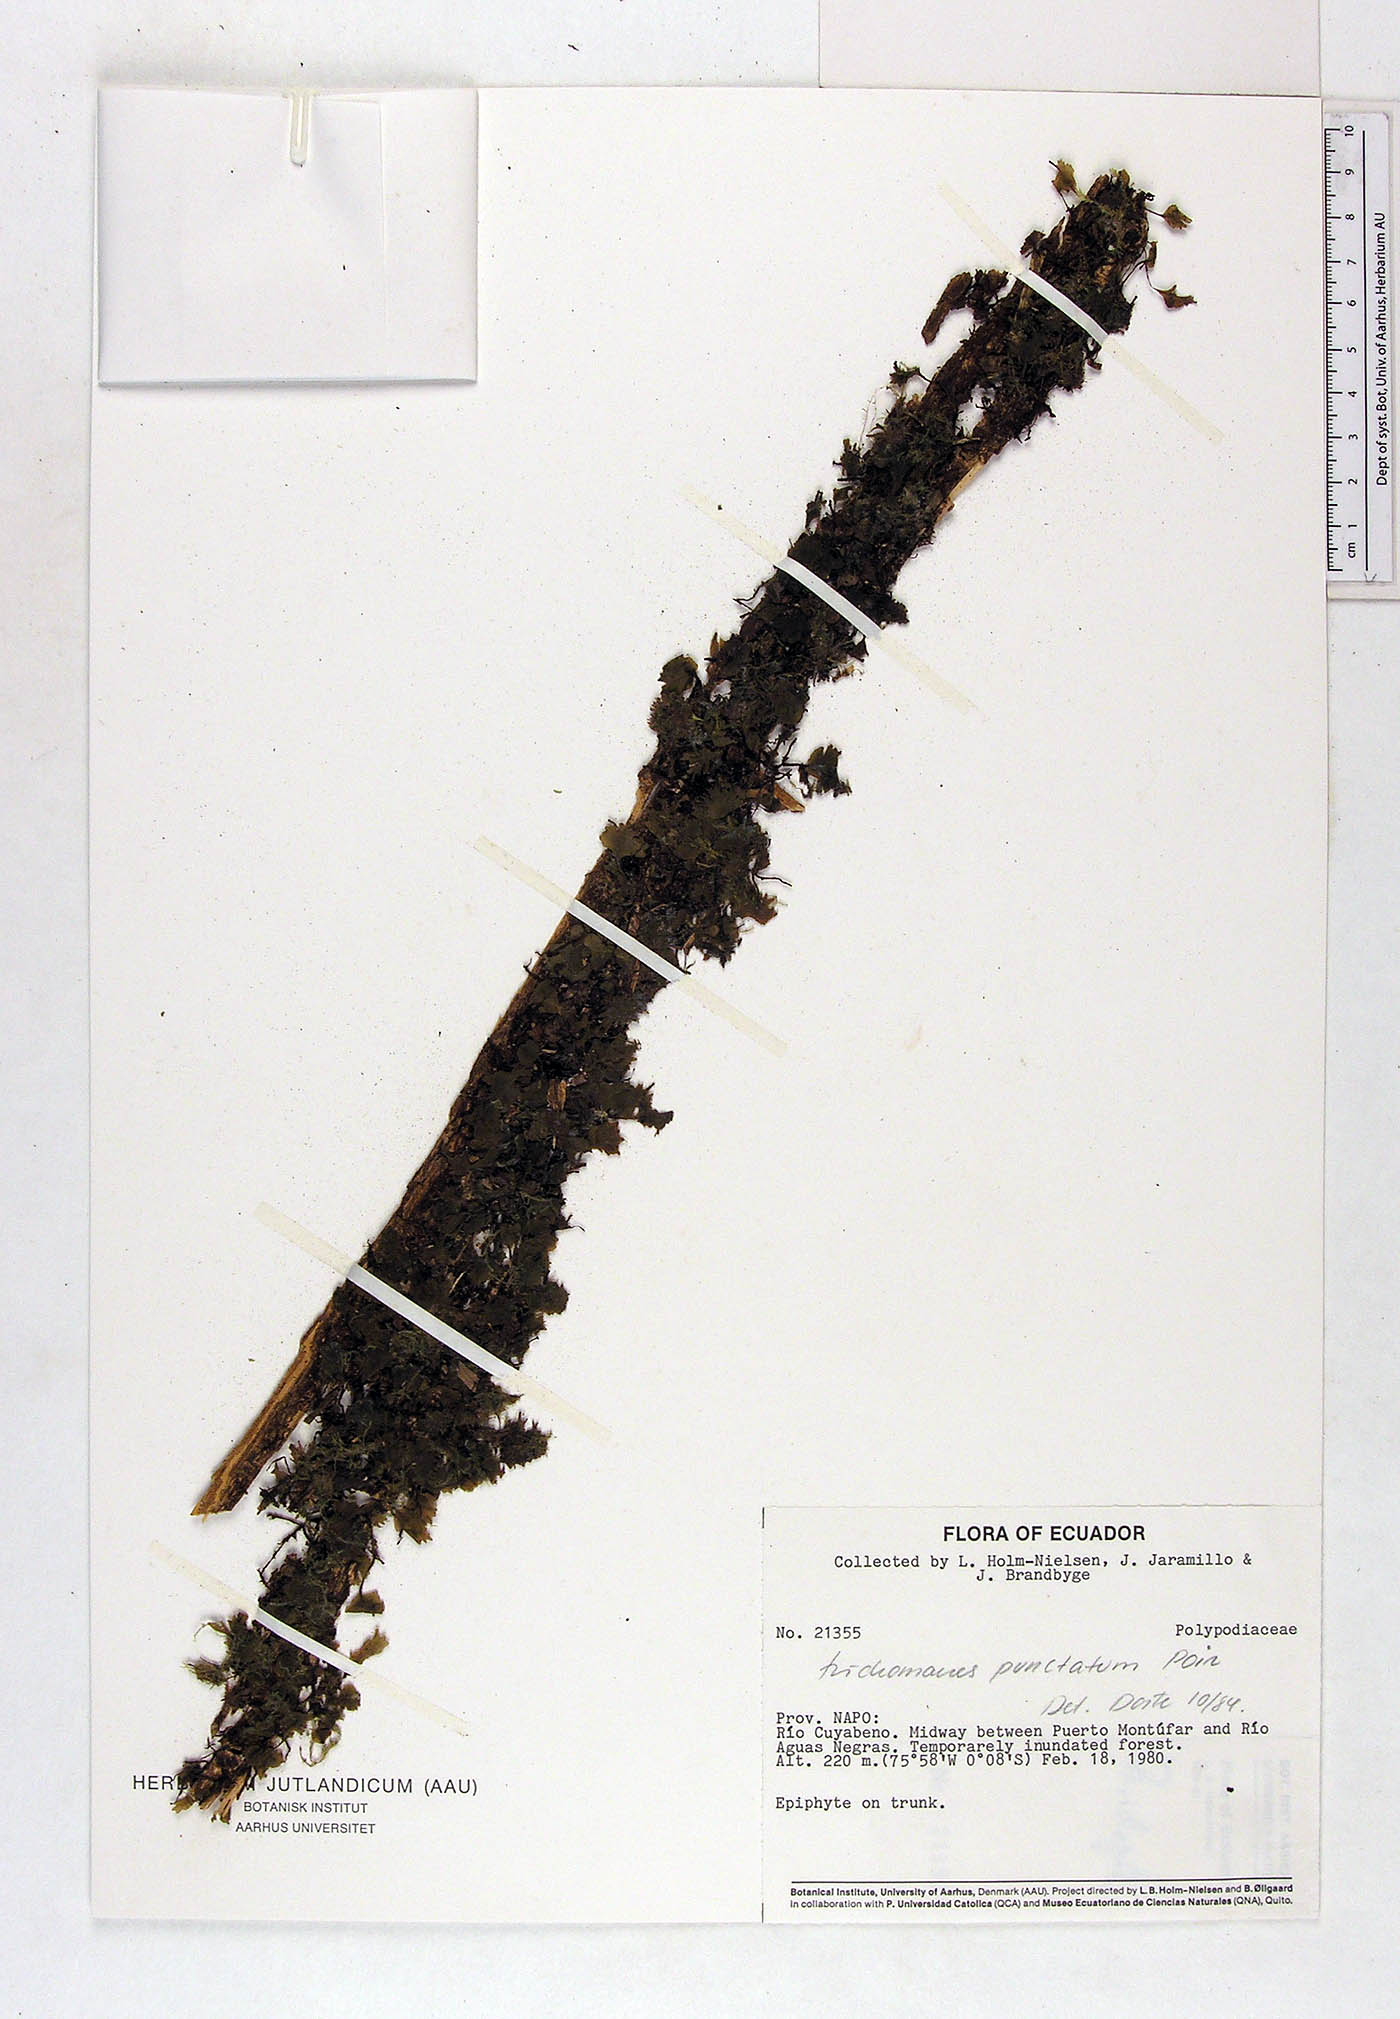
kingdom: Plantae
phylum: Tracheophyta
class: Polypodiopsida
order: Hymenophyllales
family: Hymenophyllaceae
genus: Didymoglossum
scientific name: Didymoglossum punctatum
